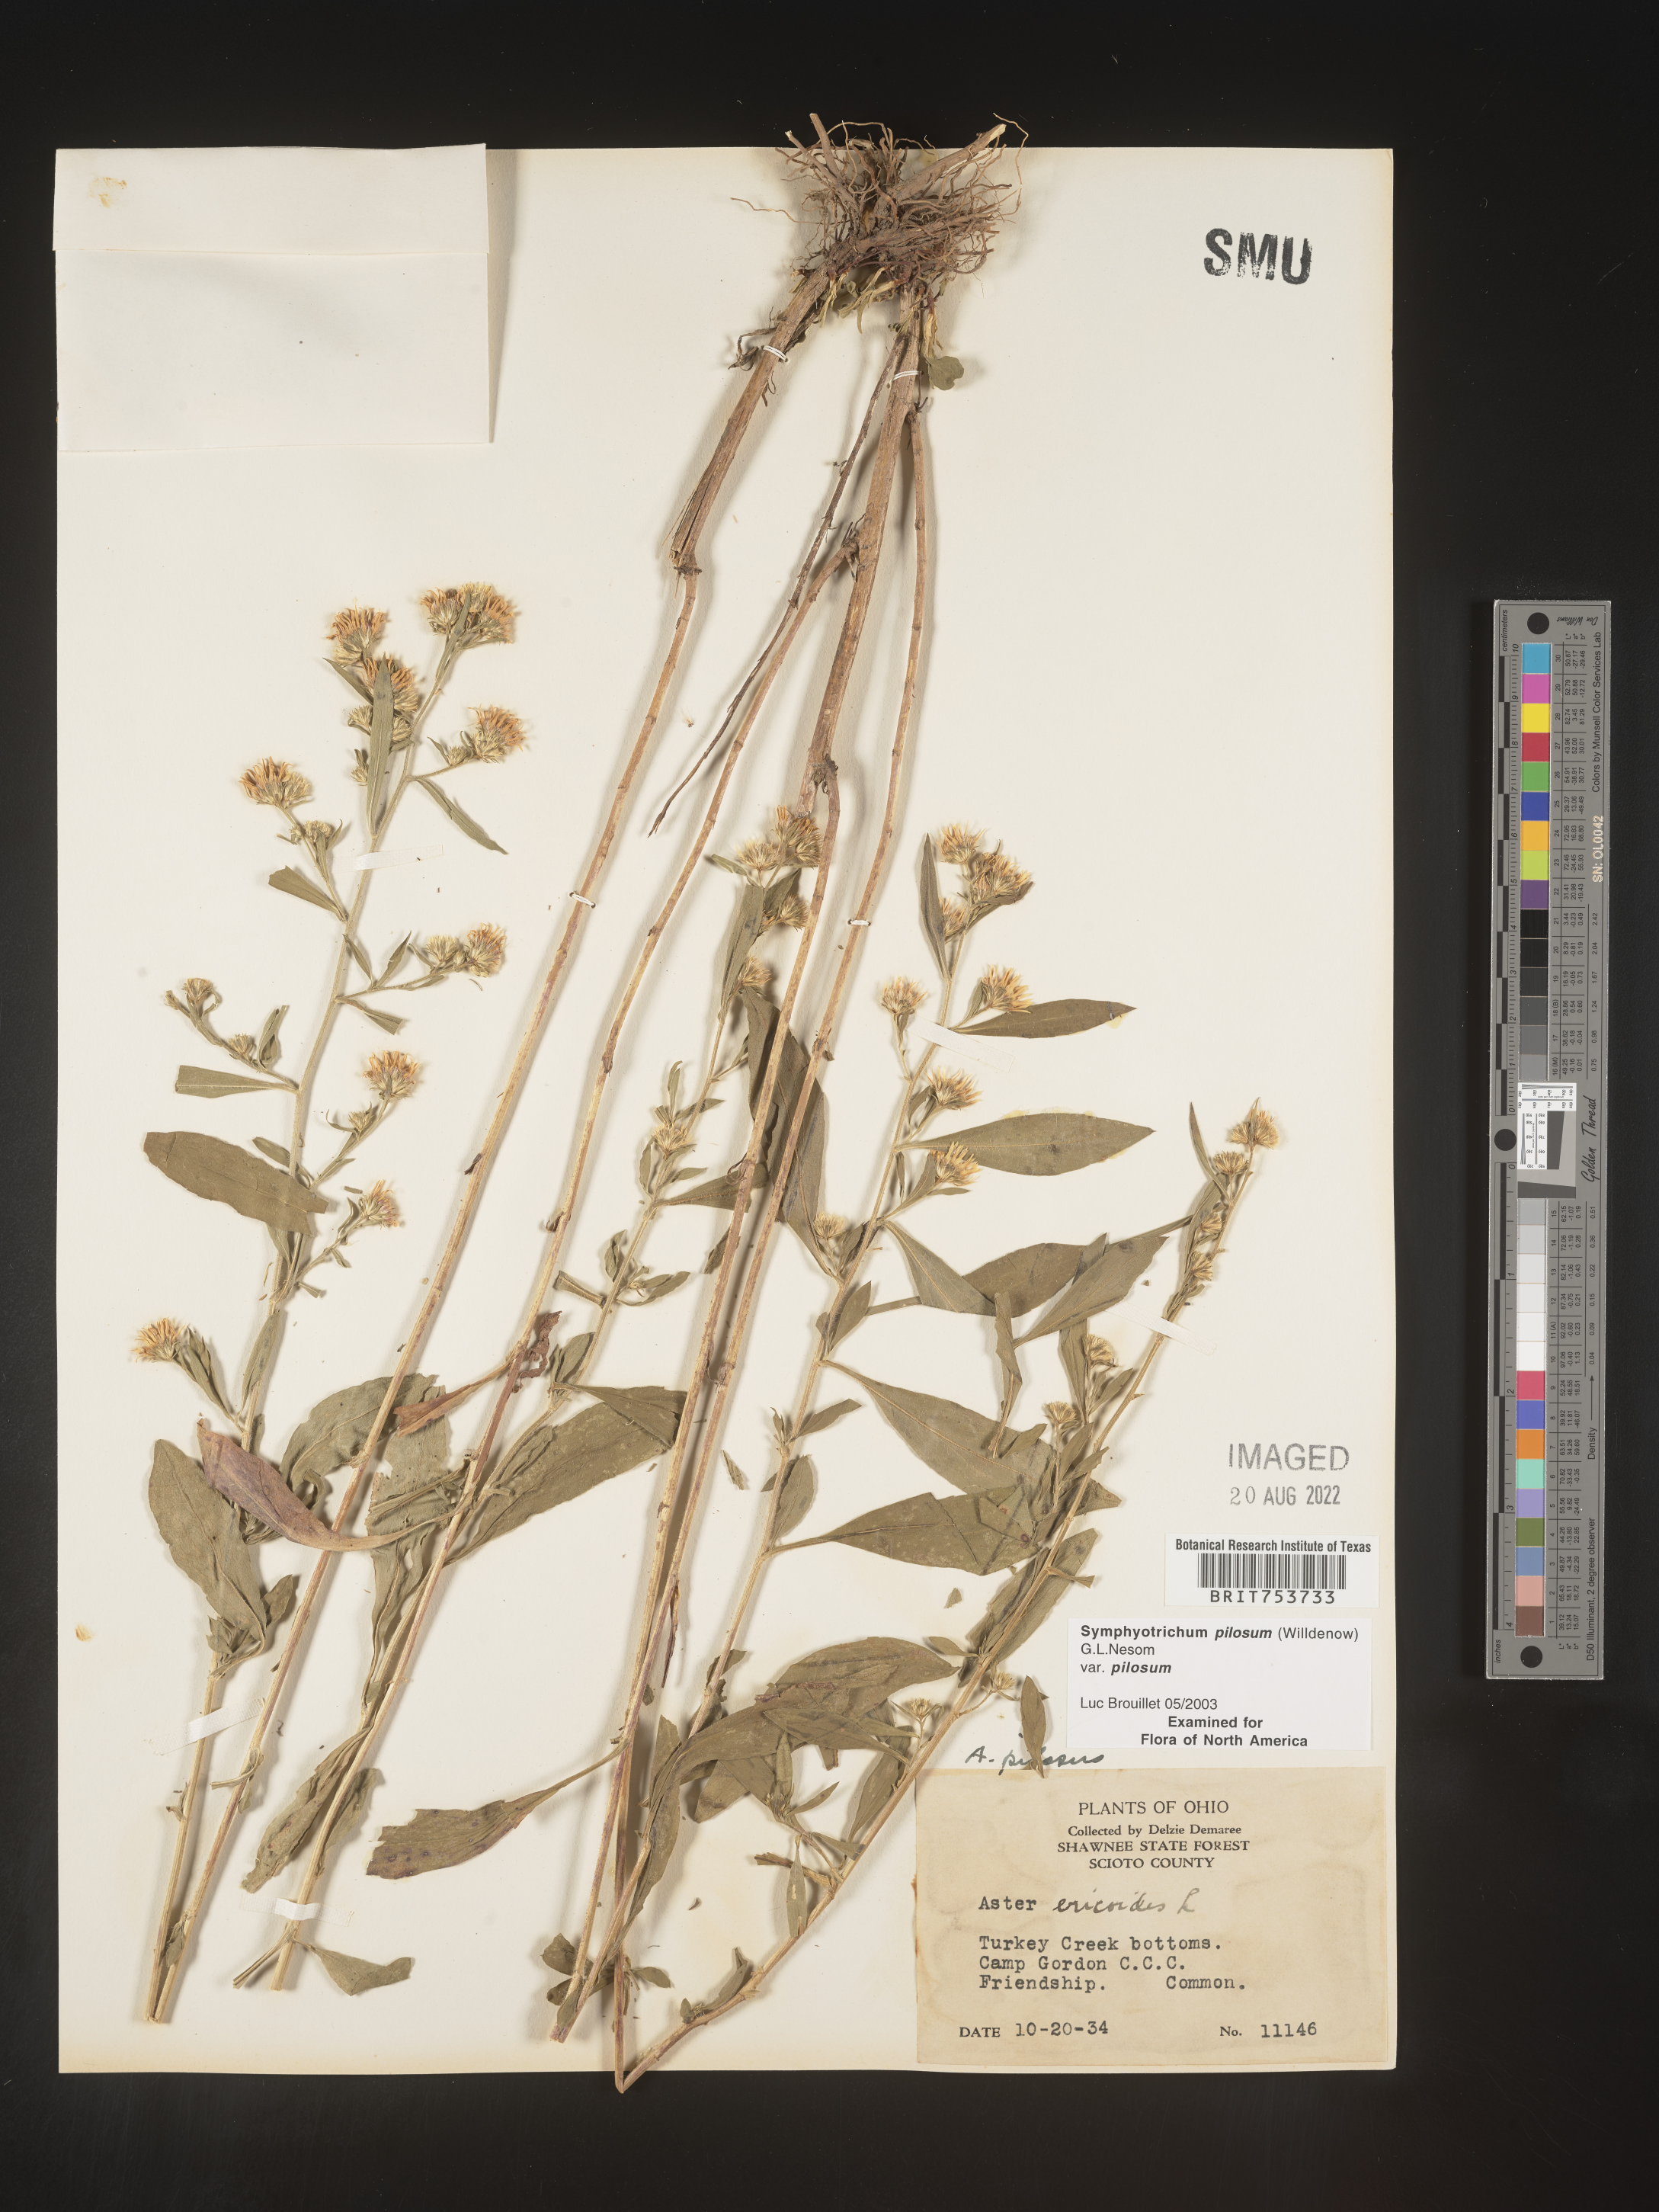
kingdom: Plantae
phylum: Tracheophyta
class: Magnoliopsida
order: Asterales
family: Asteraceae
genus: Symphyotrichum
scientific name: Symphyotrichum pilosum
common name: Awl aster
